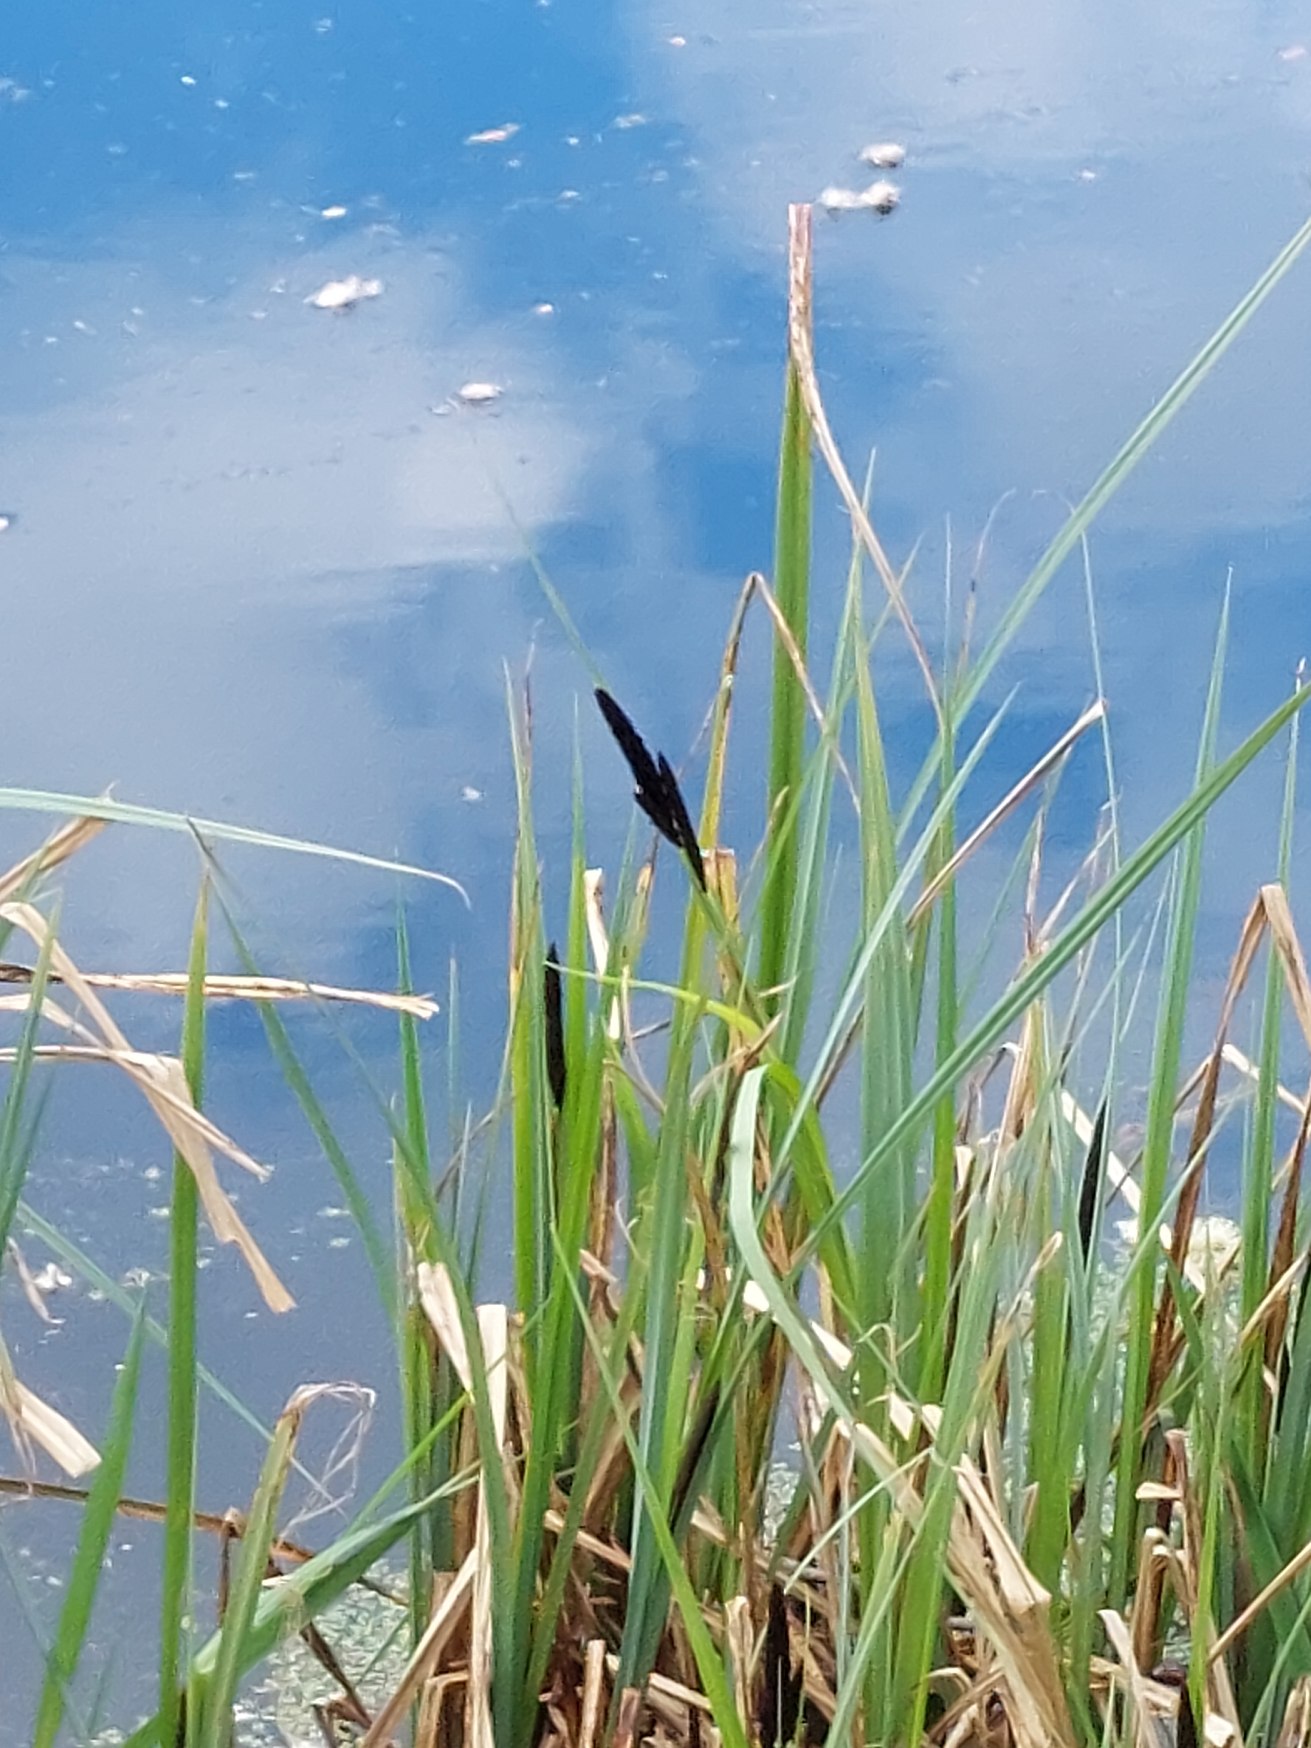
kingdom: Plantae
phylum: Tracheophyta
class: Liliopsida
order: Poales
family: Cyperaceae
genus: Carex
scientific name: Carex
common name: Starslægten
